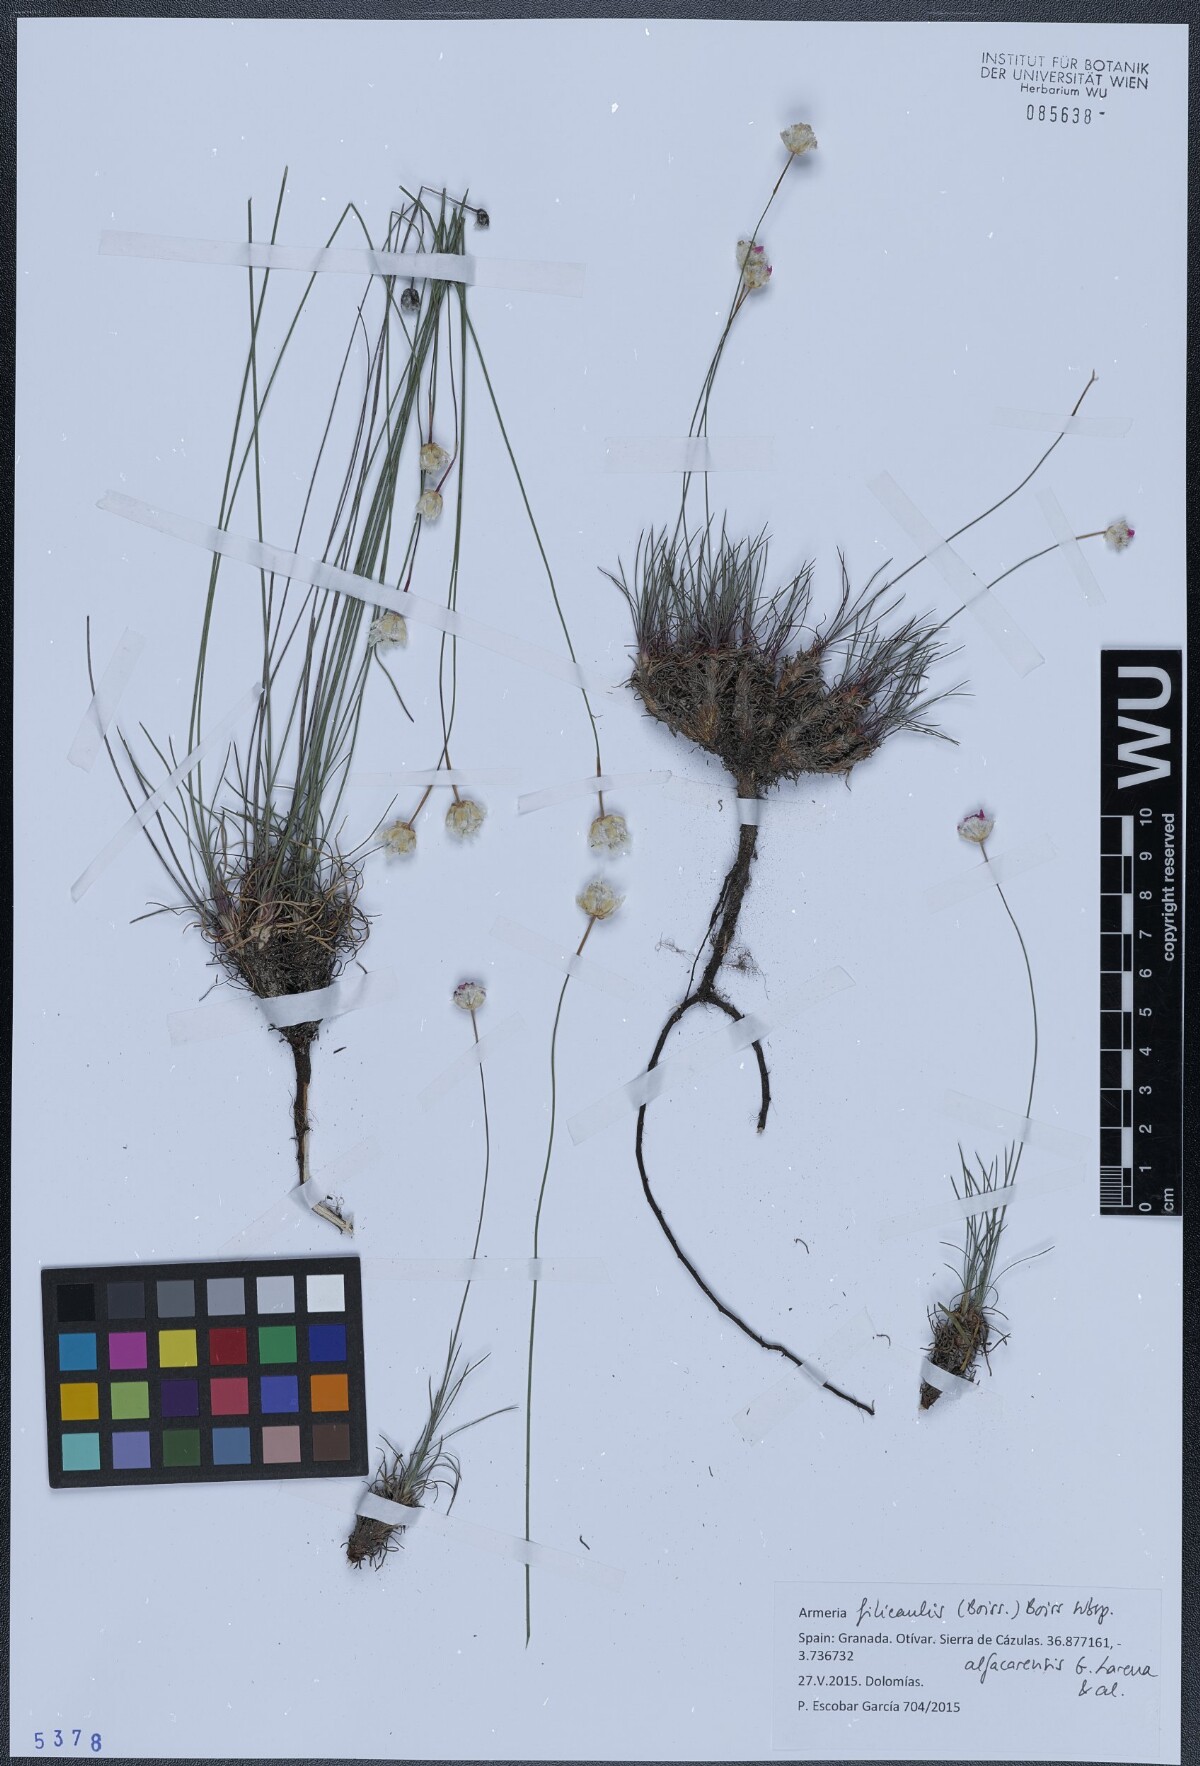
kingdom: Plantae
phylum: Tracheophyta
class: Magnoliopsida
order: Caryophyllales
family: Plumbaginaceae
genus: Armeria
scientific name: Armeria filicaulis
